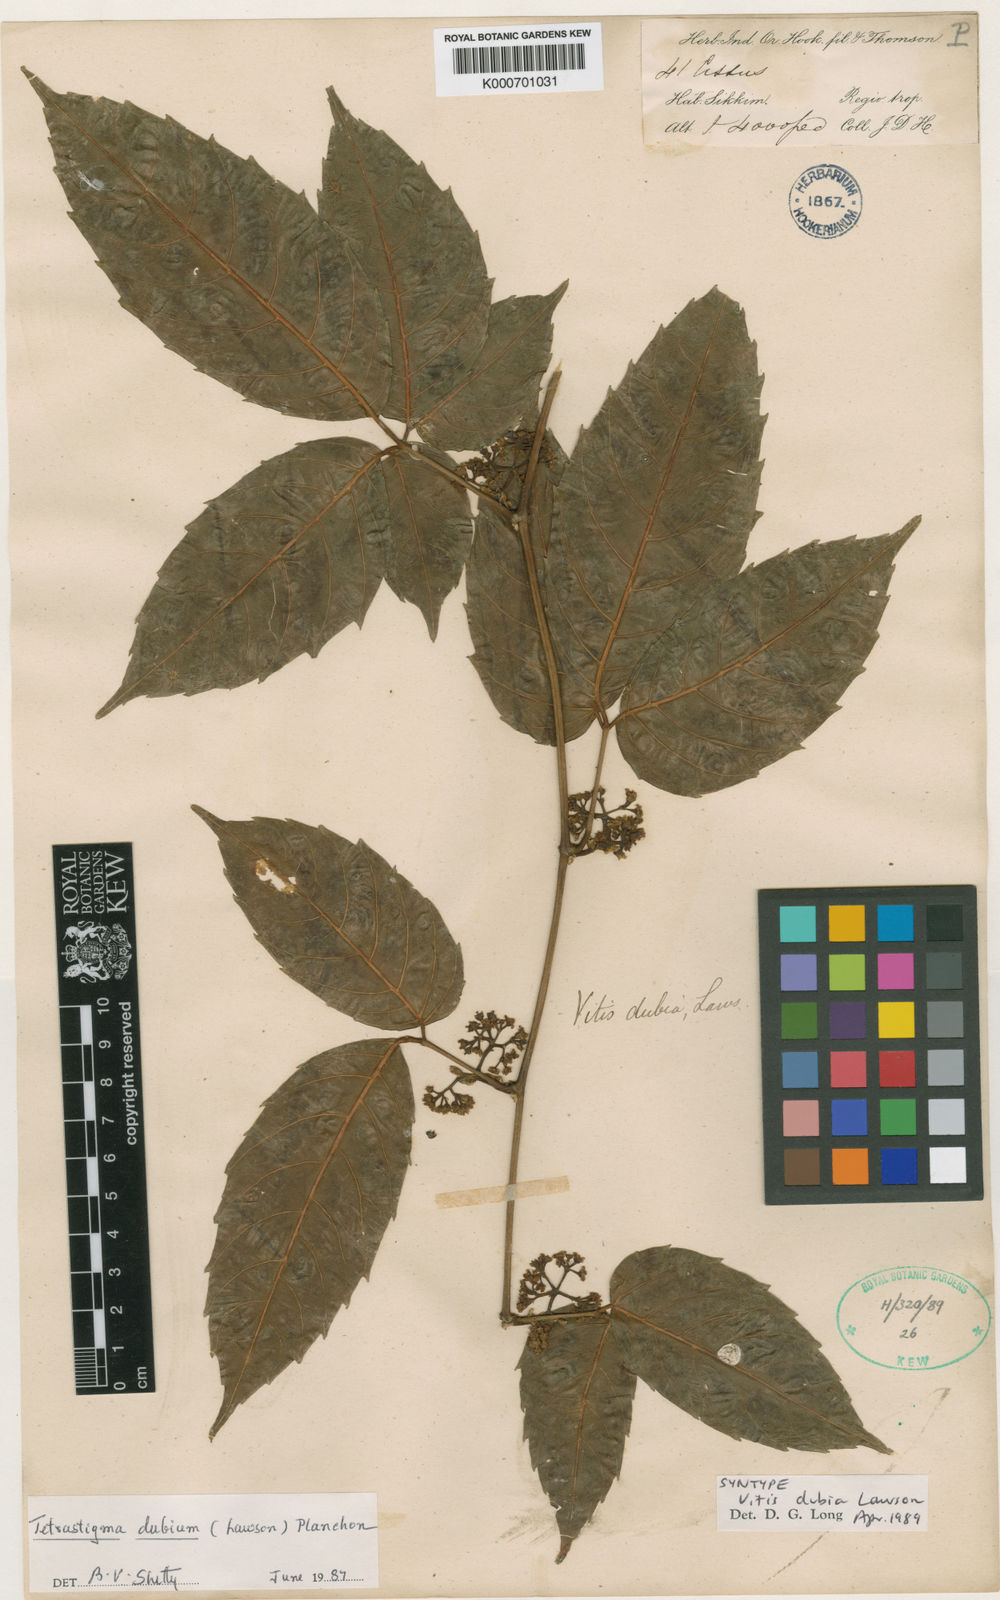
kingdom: Plantae
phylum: Tracheophyta
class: Magnoliopsida
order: Vitales
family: Vitaceae
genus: Tetrastigma
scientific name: Tetrastigma dubium
